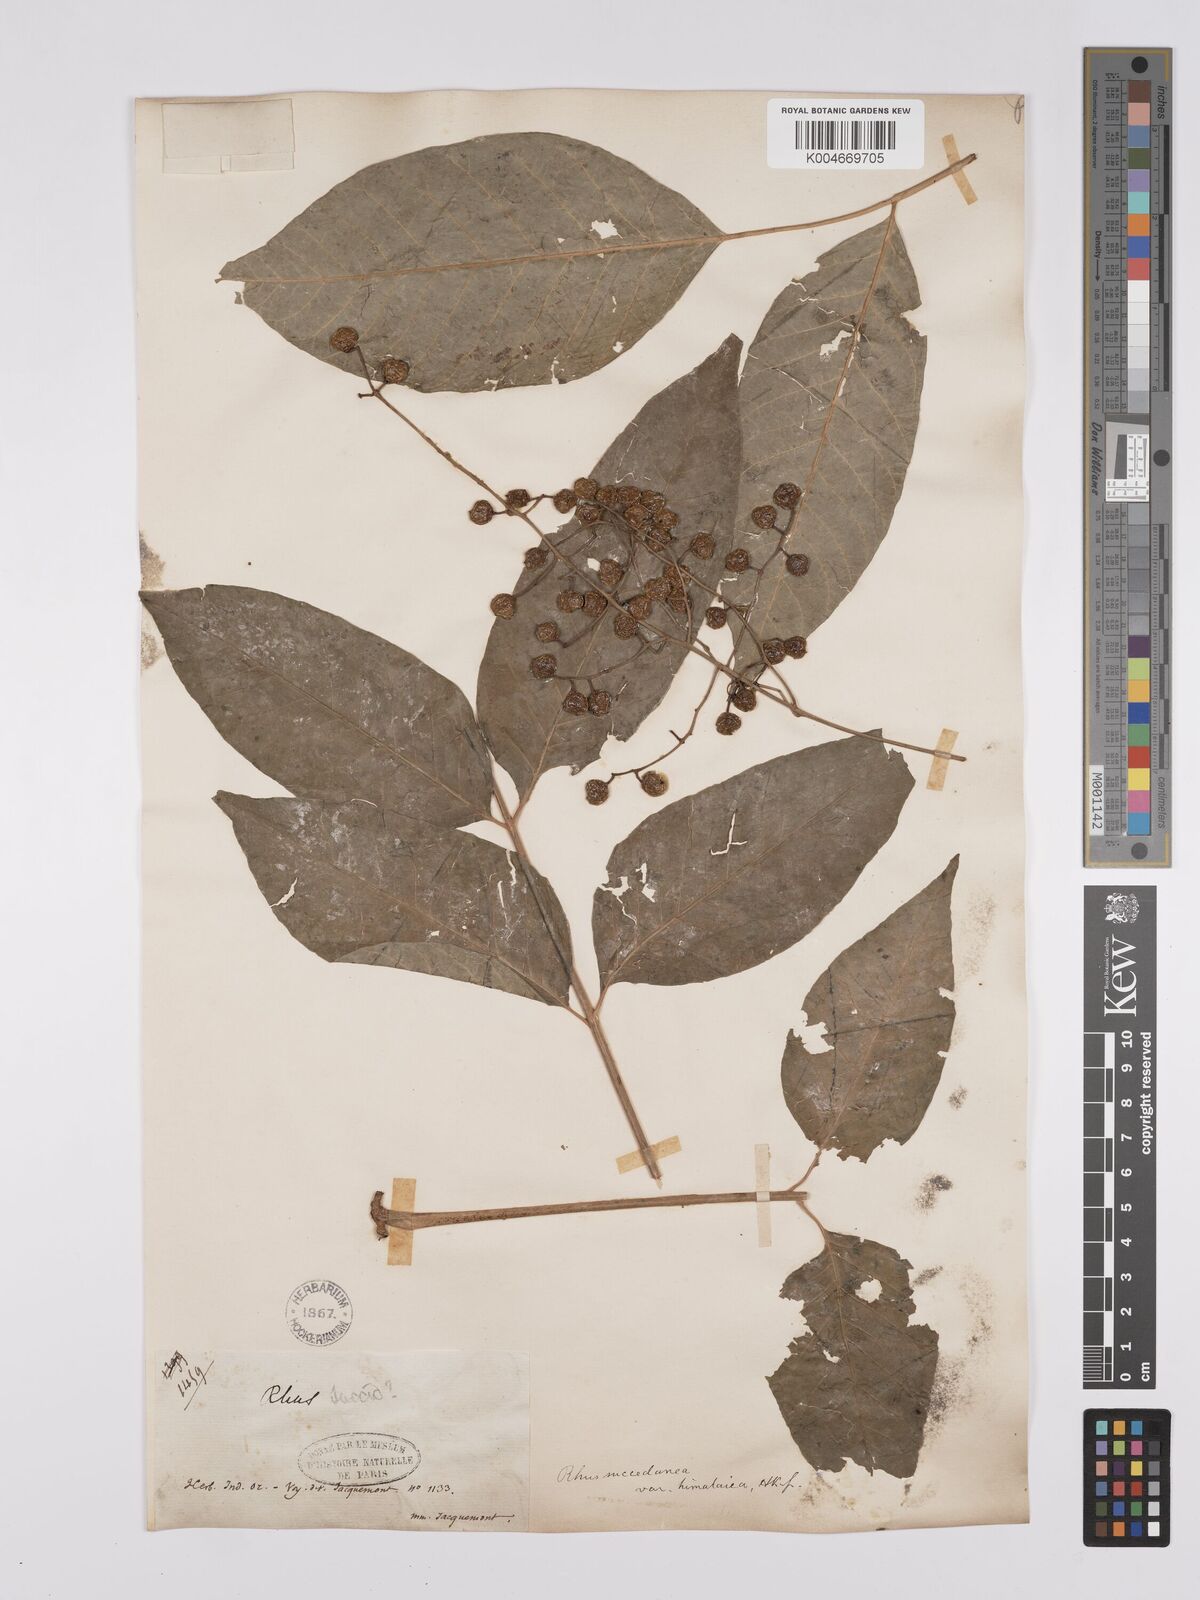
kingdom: Plantae
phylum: Tracheophyta
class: Magnoliopsida
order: Sapindales
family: Anacardiaceae
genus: Toxicodendron
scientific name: Toxicodendron succedaneum
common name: Wax tree
